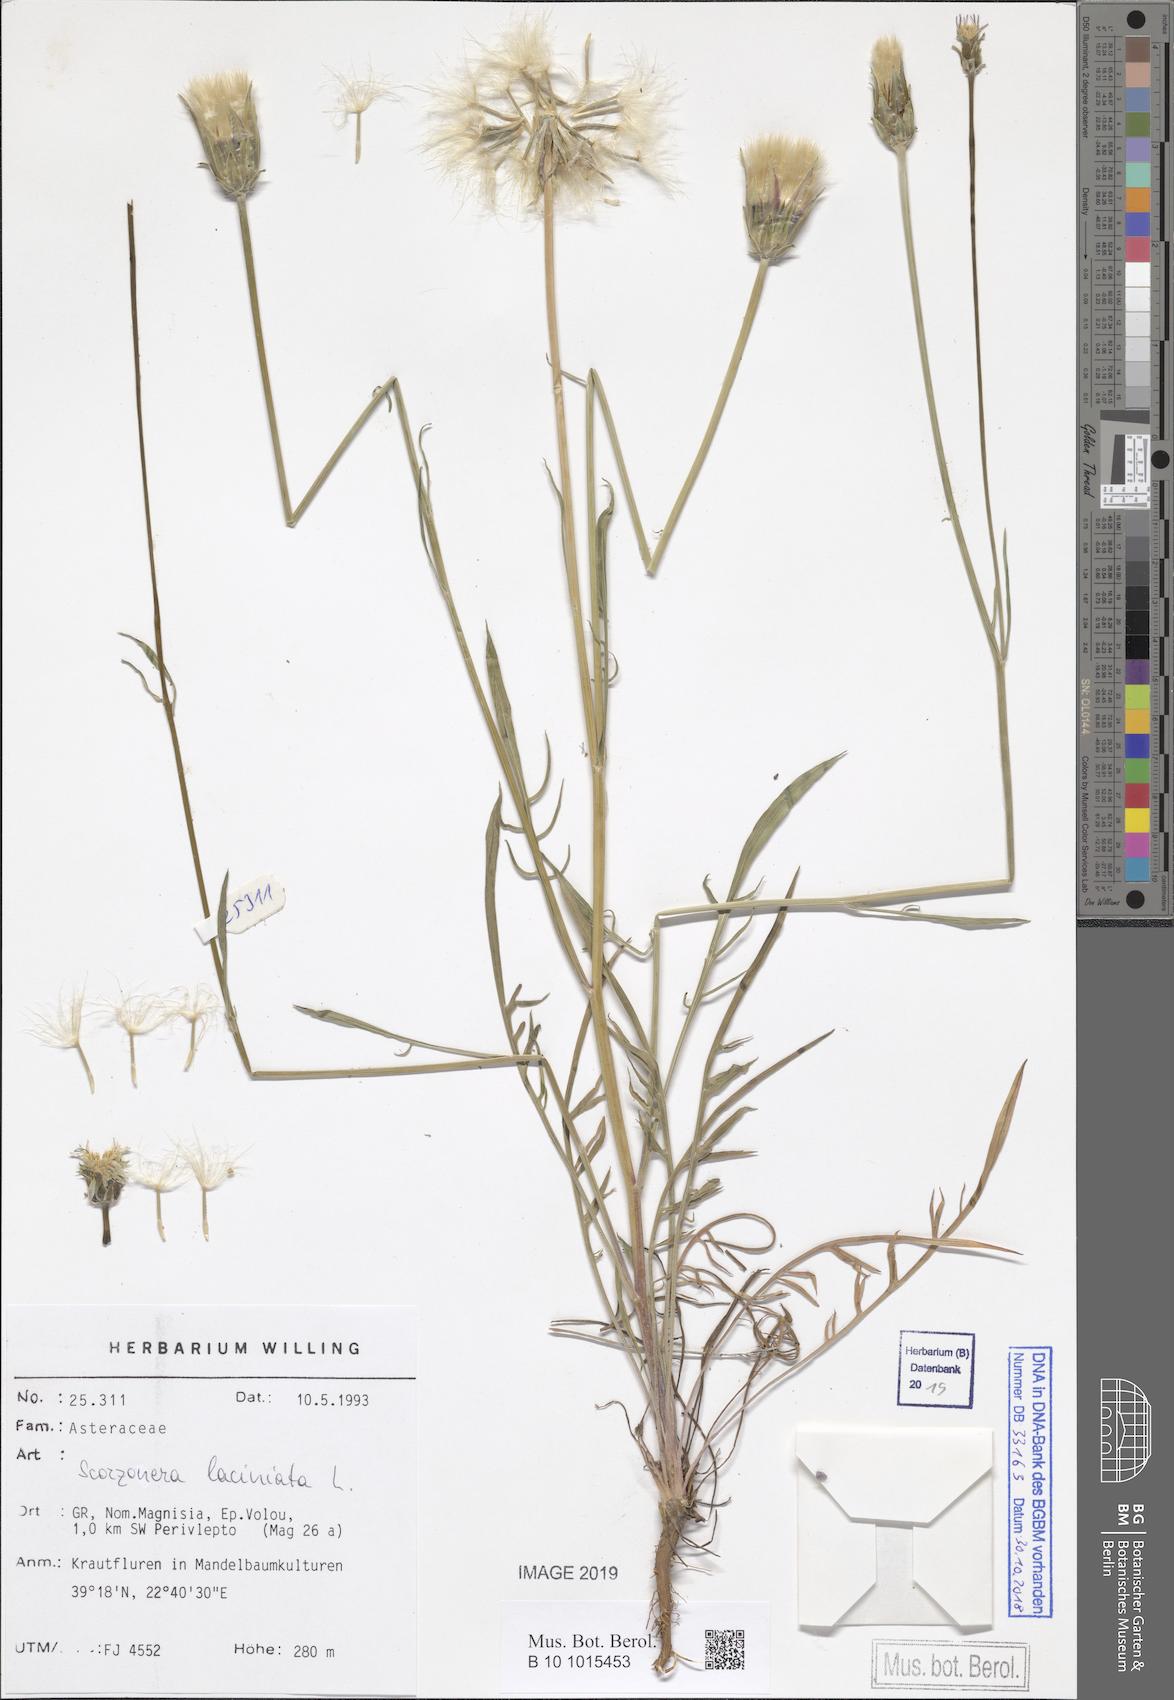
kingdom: Plantae
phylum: Tracheophyta
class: Magnoliopsida
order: Asterales
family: Asteraceae
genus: Scorzonera
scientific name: Scorzonera laciniata
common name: Cutleaf vipergrass
